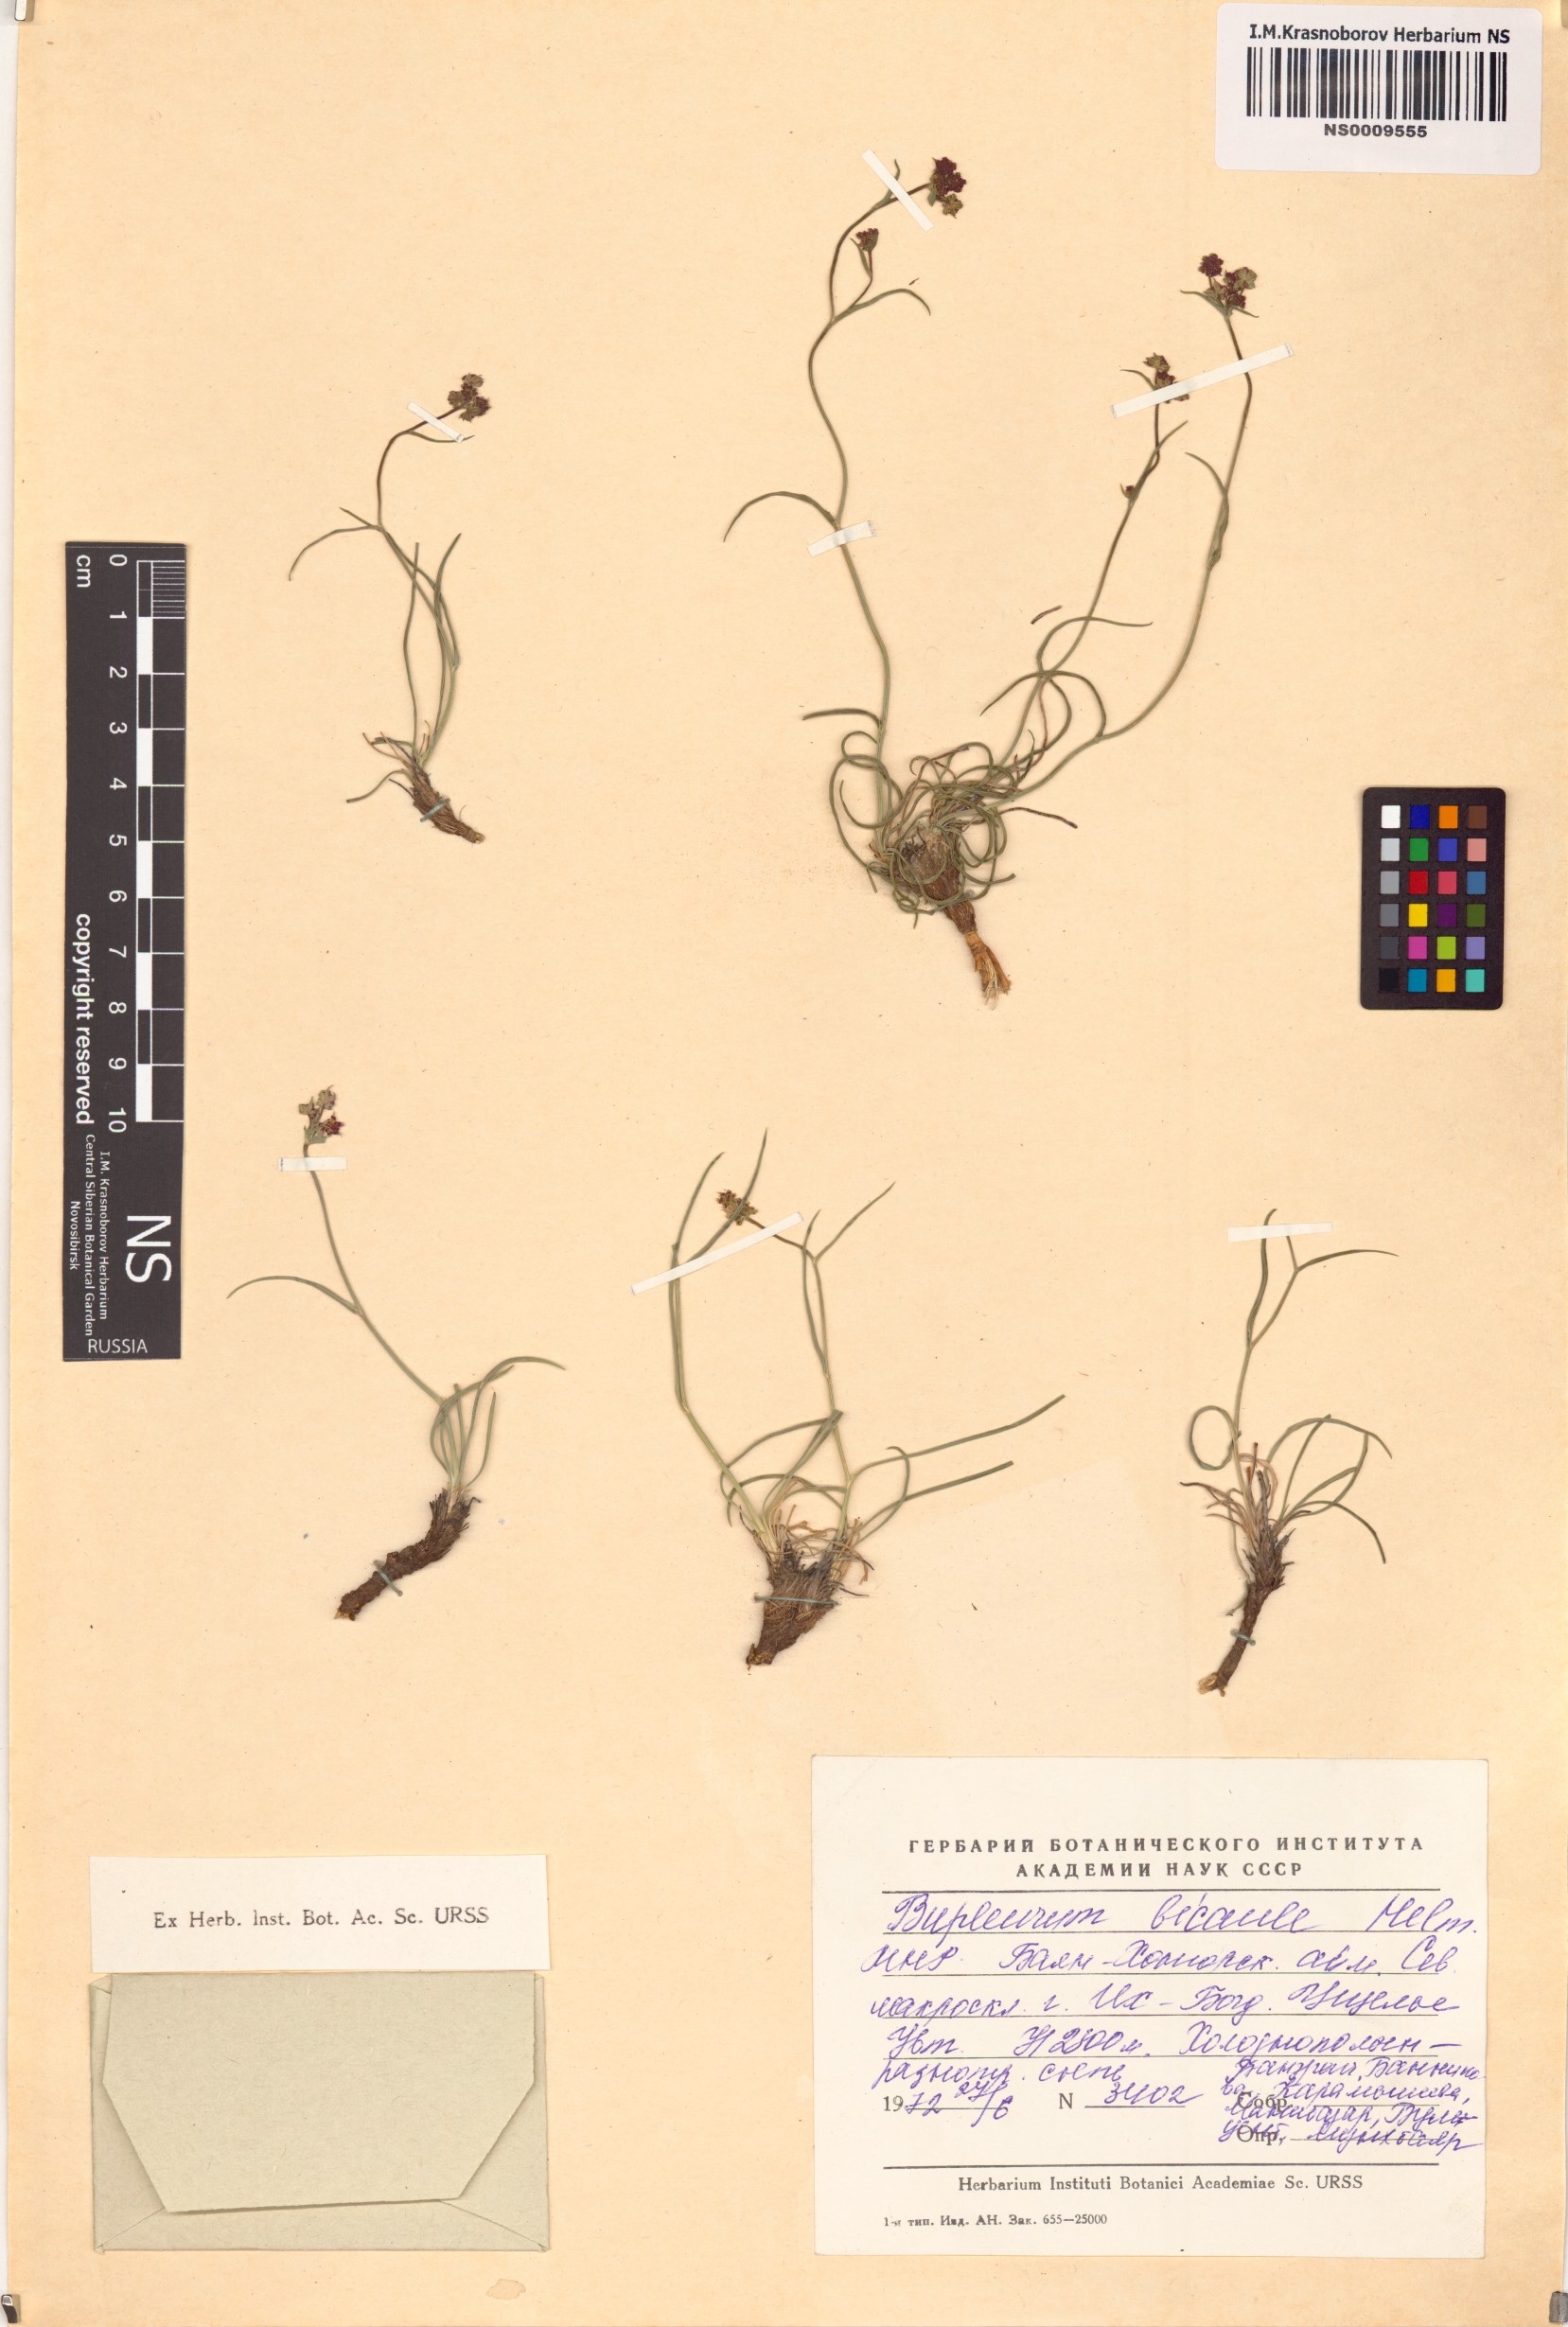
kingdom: Plantae
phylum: Tracheophyta
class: Magnoliopsida
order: Apiales
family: Apiaceae
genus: Bupleurum
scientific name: Bupleurum bicaule
